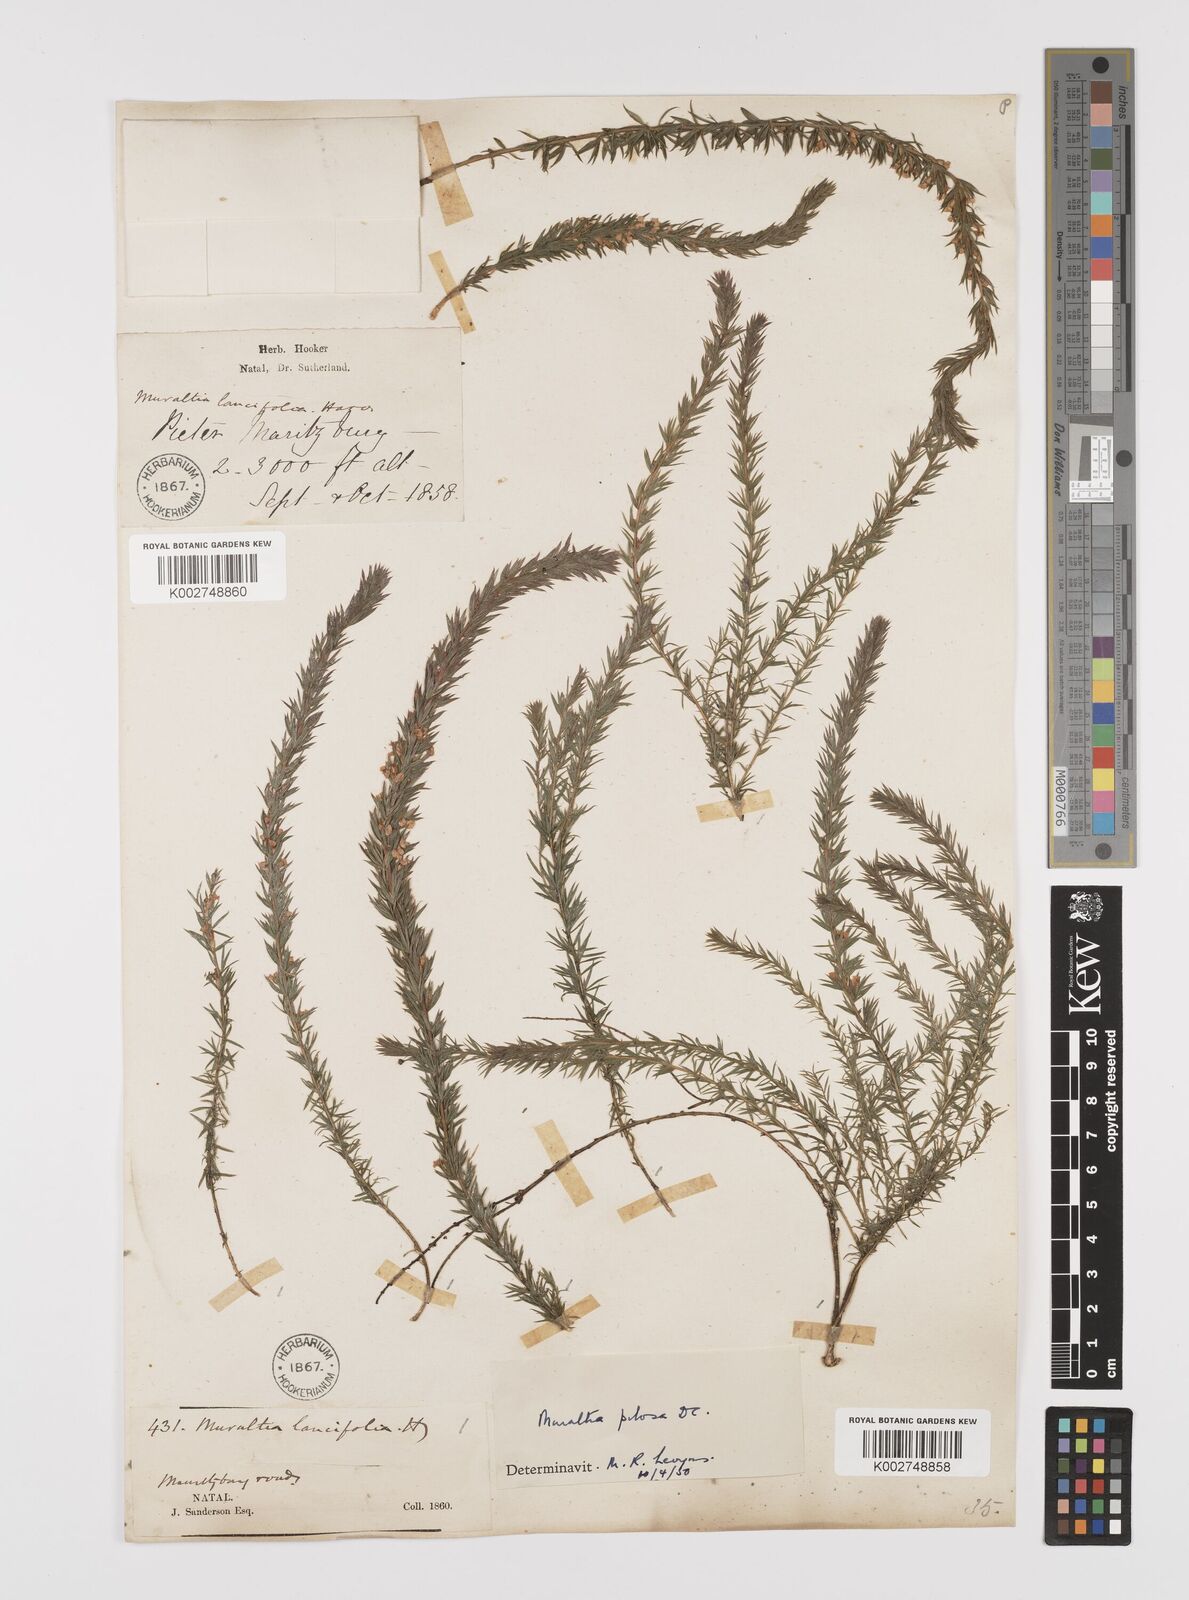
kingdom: Plantae
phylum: Tracheophyta
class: Magnoliopsida
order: Fabales
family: Polygalaceae
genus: Muraltia
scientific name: Muraltia lancifolia
